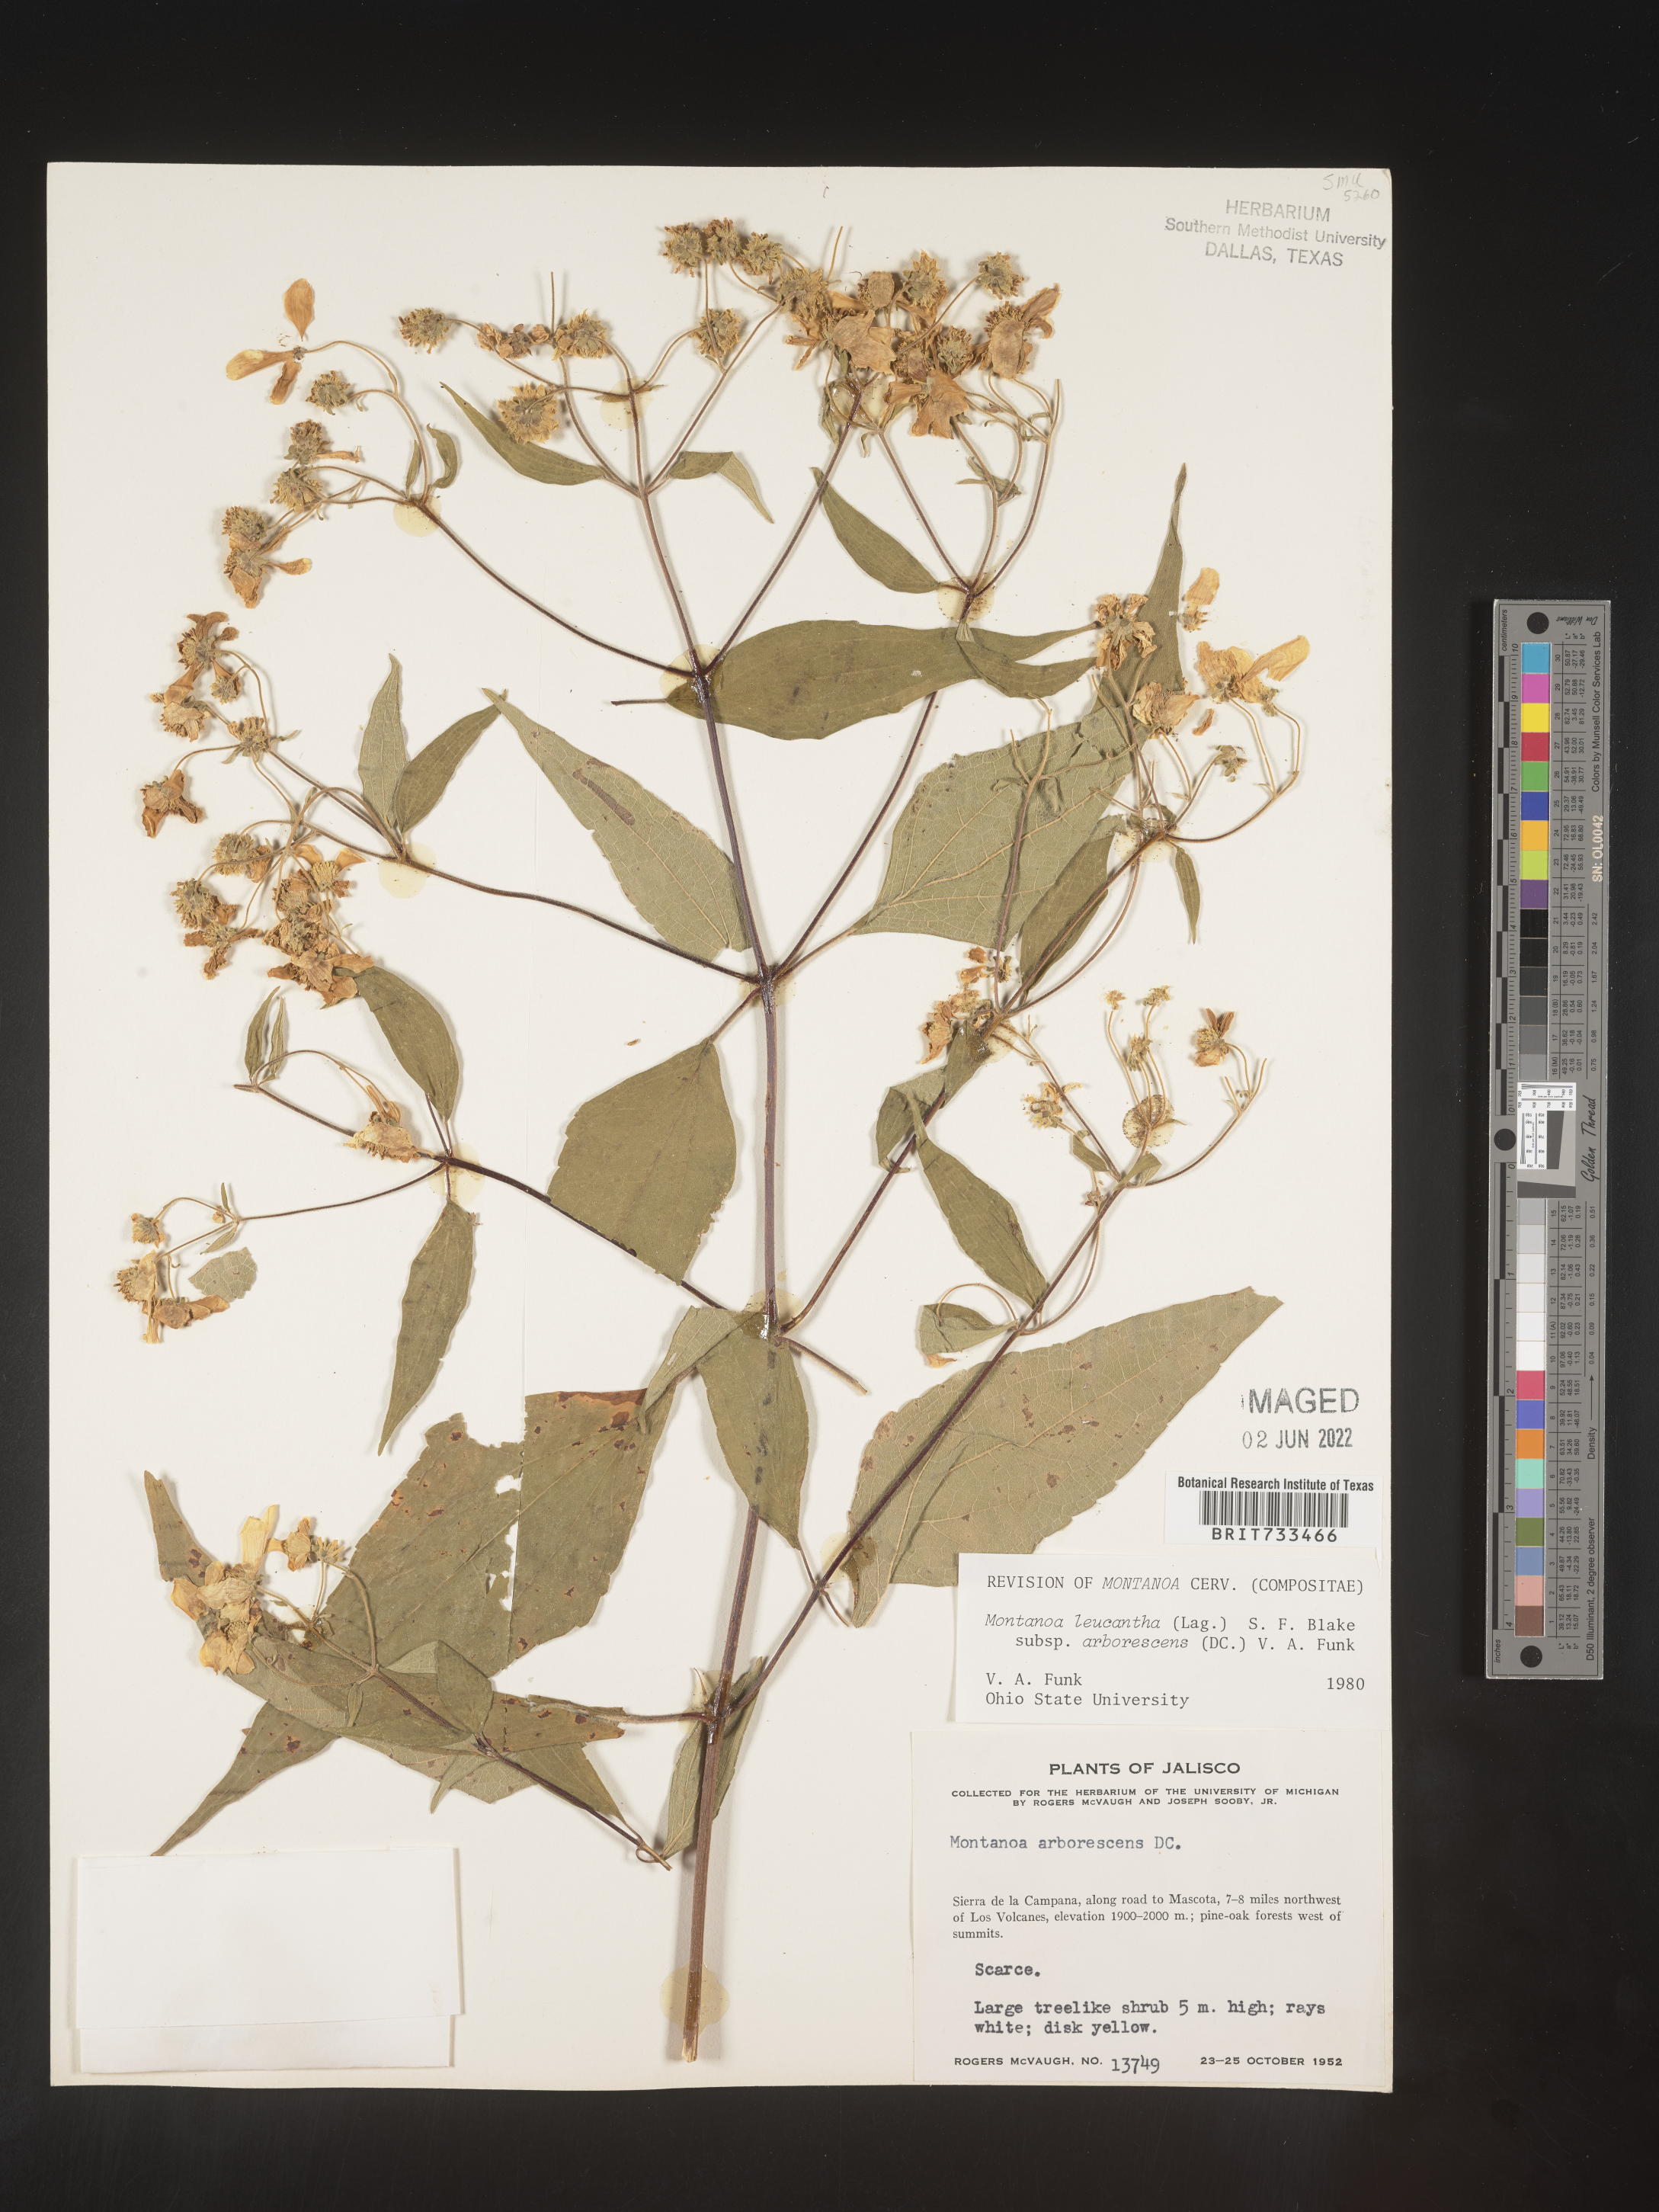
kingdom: Plantae
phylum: Tracheophyta
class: Magnoliopsida
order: Asterales
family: Asteraceae
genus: Montanoa
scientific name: Montanoa
